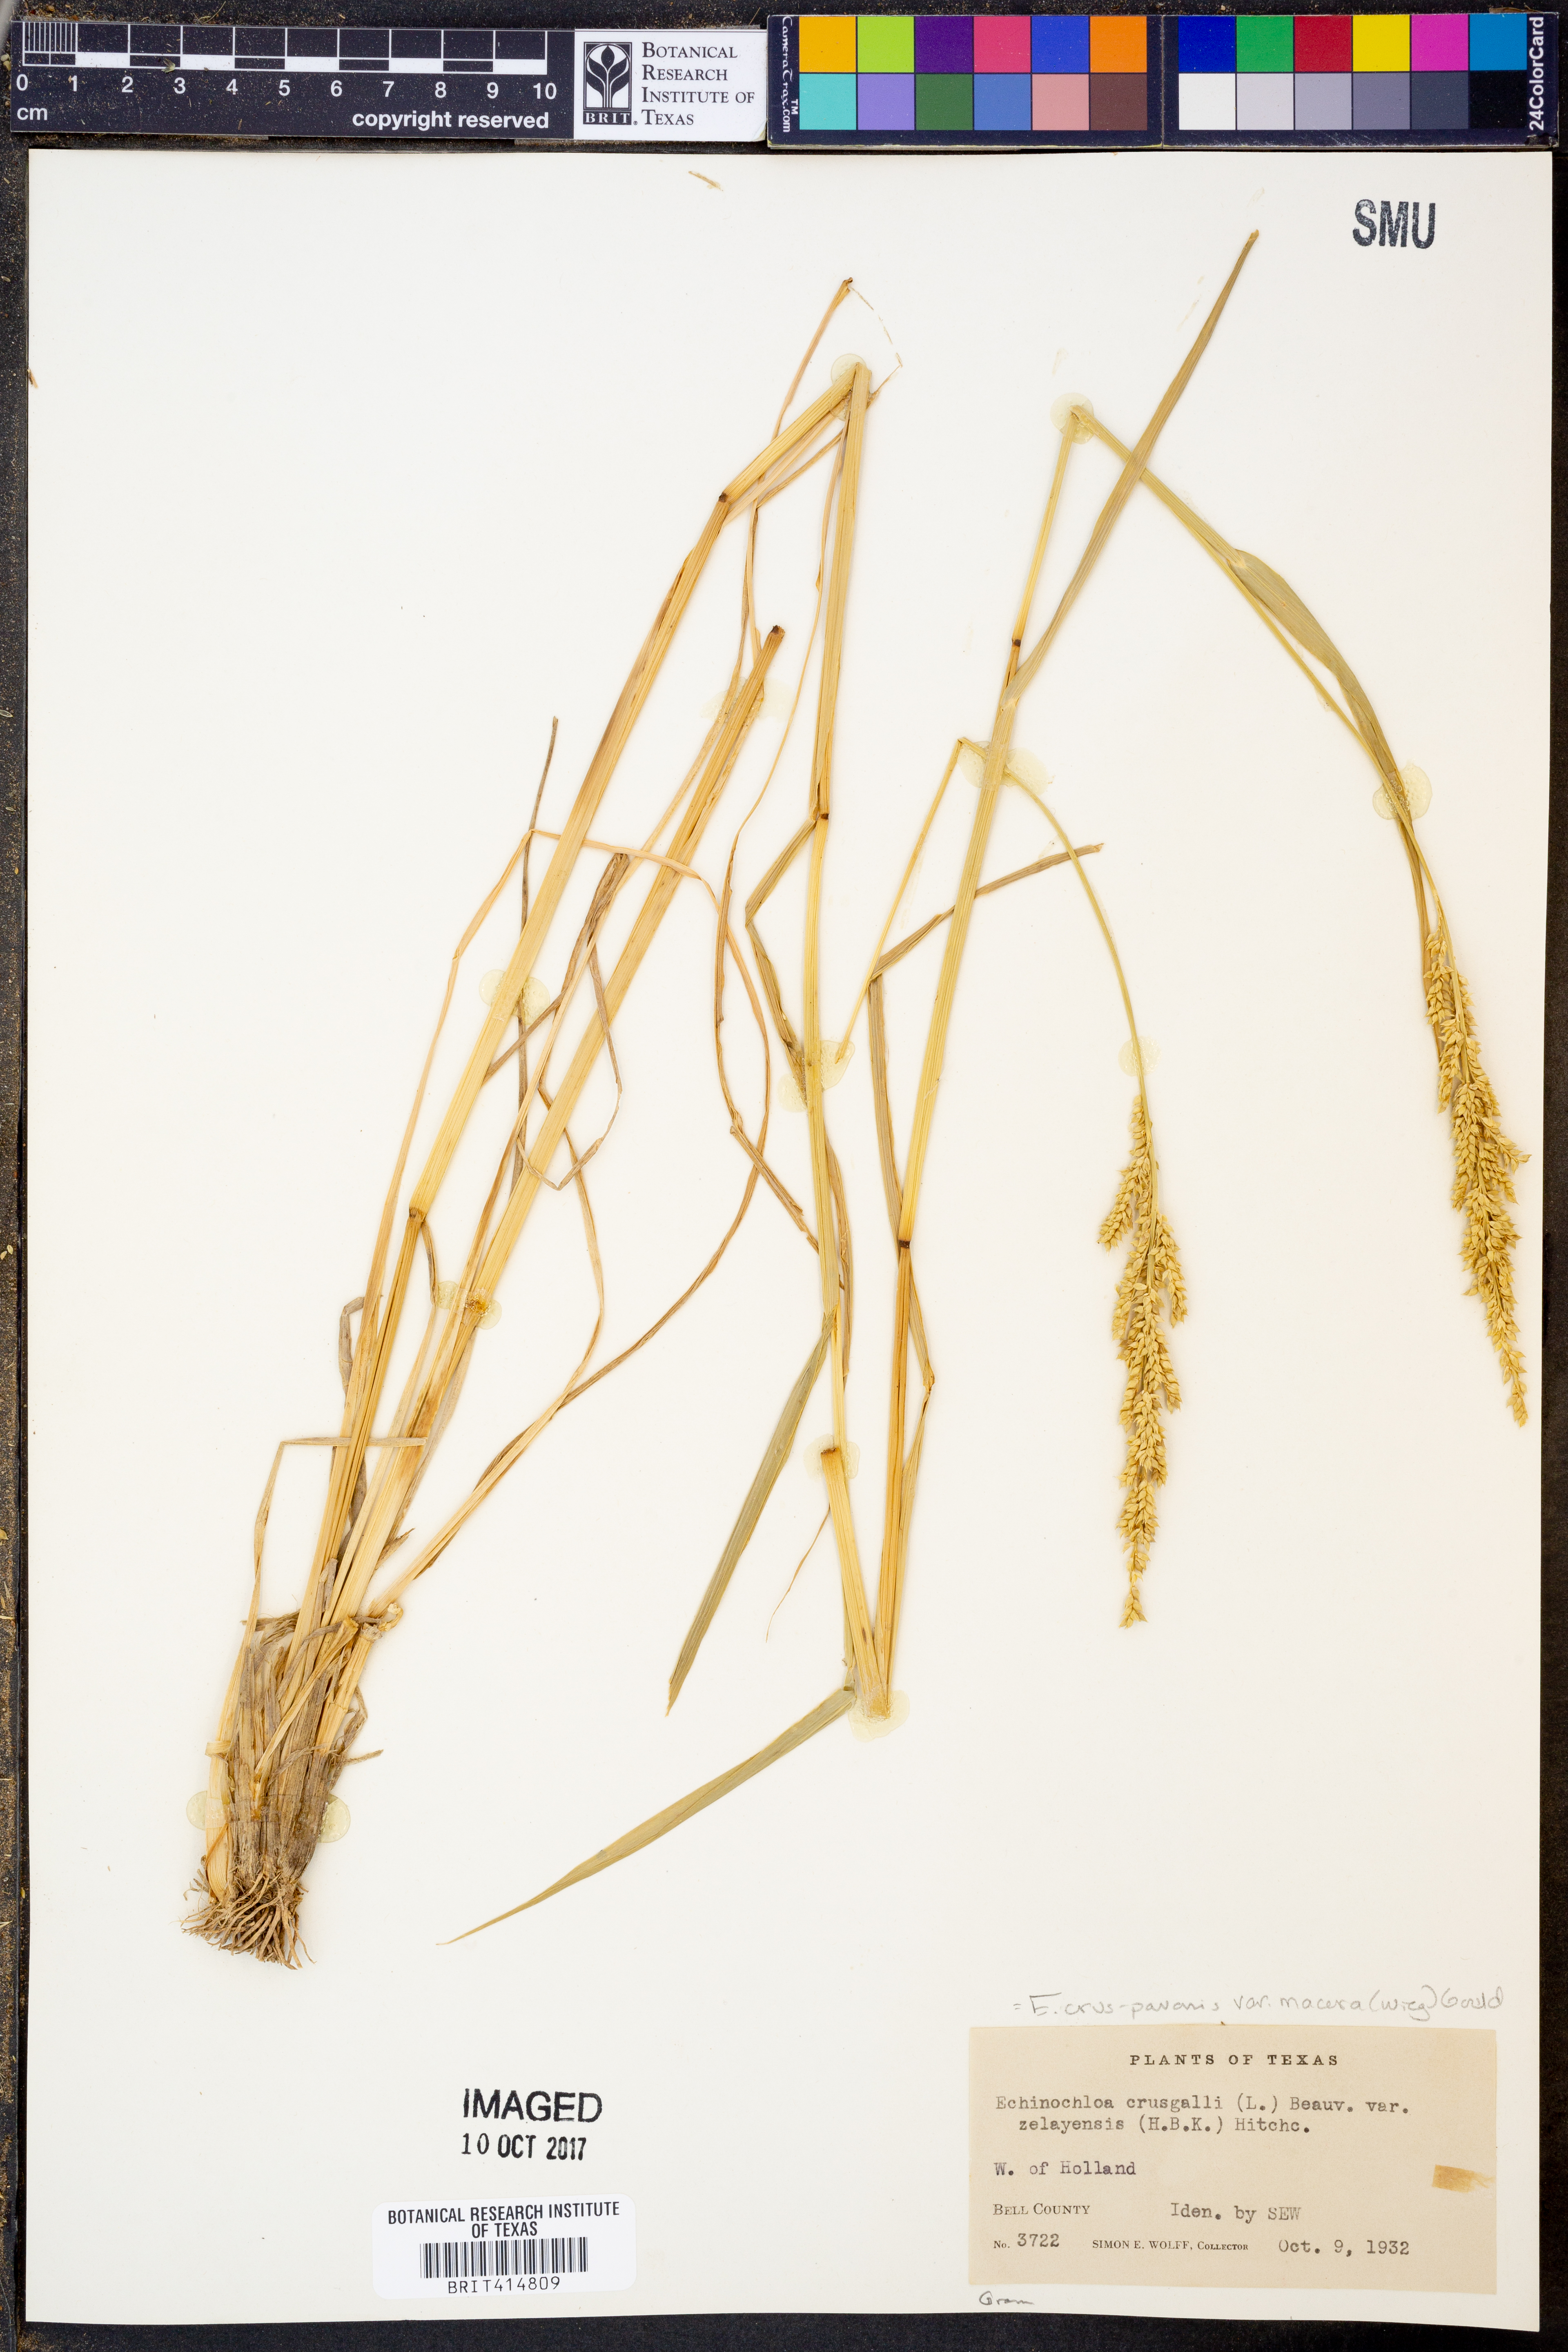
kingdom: Plantae
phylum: Tracheophyta
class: Liliopsida
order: Poales
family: Poaceae
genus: Echinochloa
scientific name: Echinochloa crus-pavonis
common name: Gulf cockspur grass
